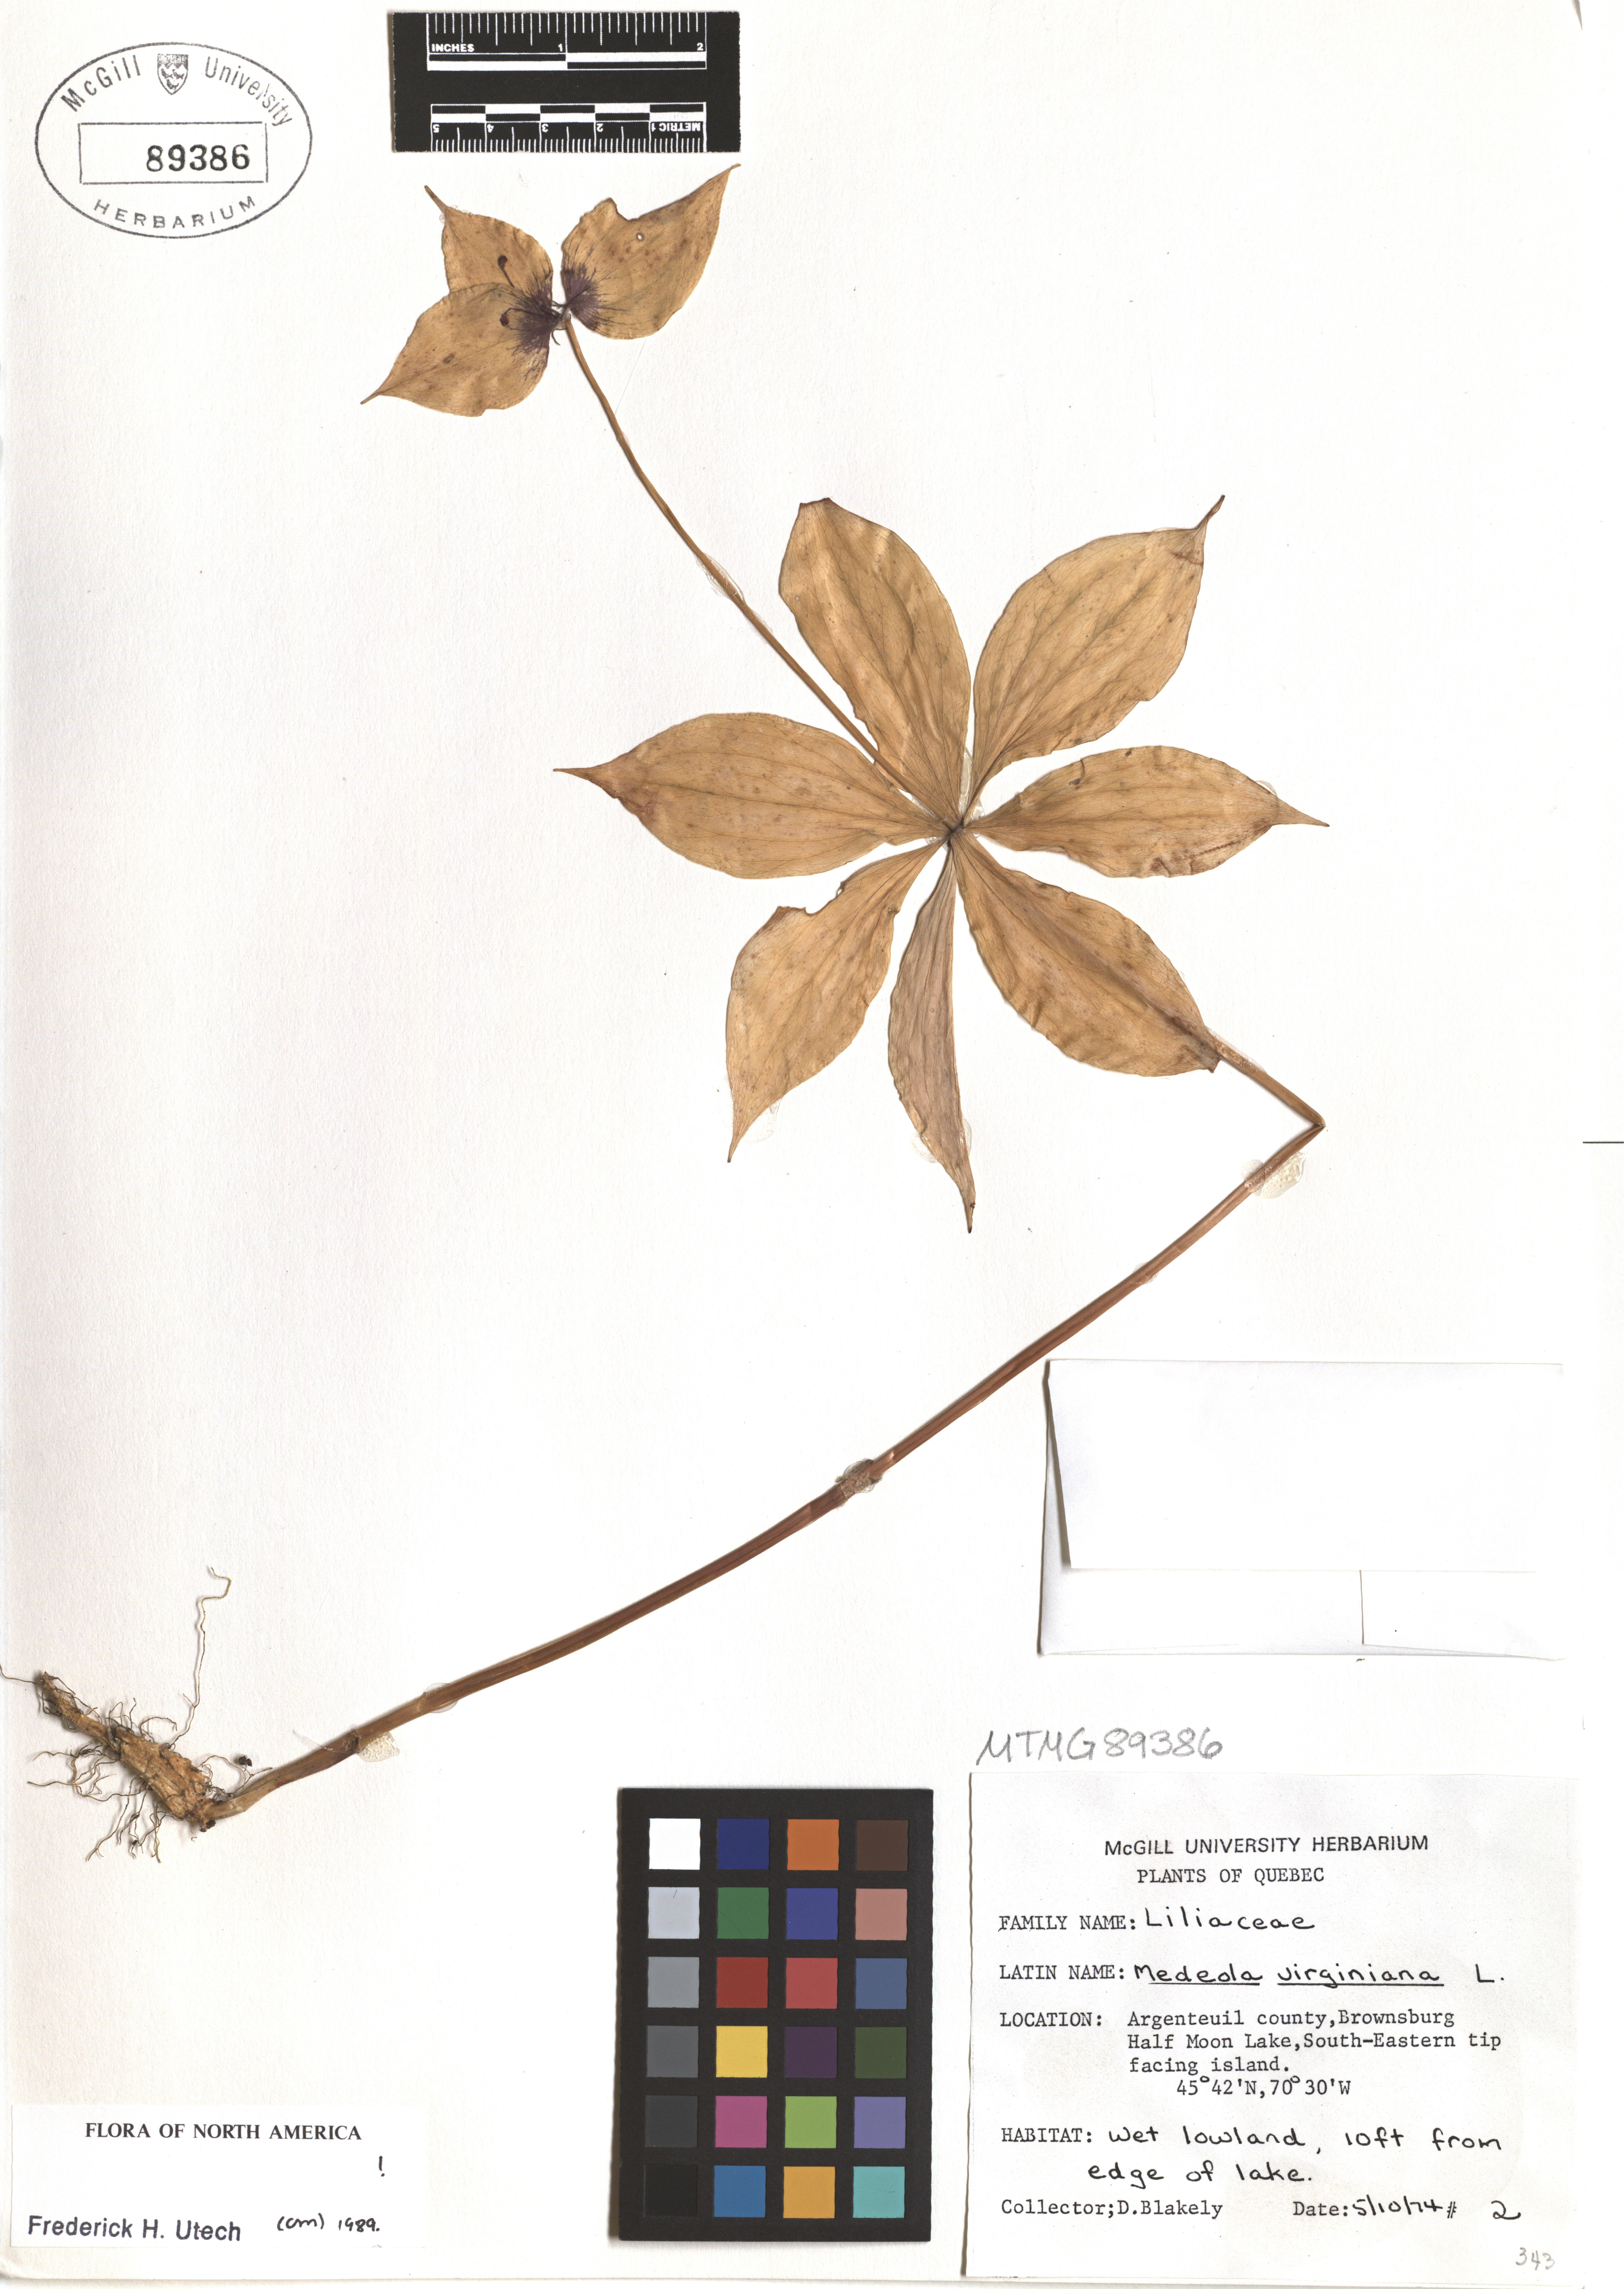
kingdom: Plantae
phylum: Tracheophyta
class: Liliopsida
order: Liliales
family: Liliaceae
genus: Medeola
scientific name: Medeola virginiana
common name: Indian cucumber-root
